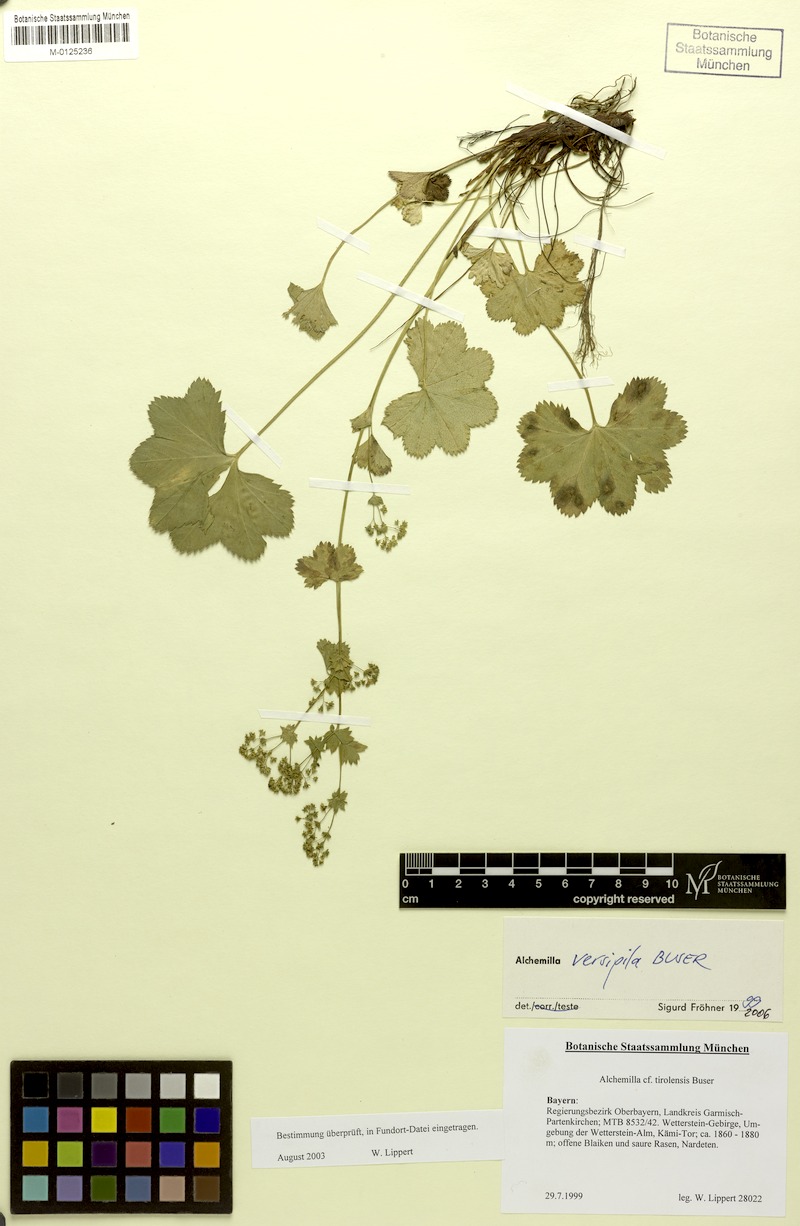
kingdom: Plantae
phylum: Tracheophyta
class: Magnoliopsida
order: Rosales
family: Rosaceae
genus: Alchemilla
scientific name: Alchemilla versipila
